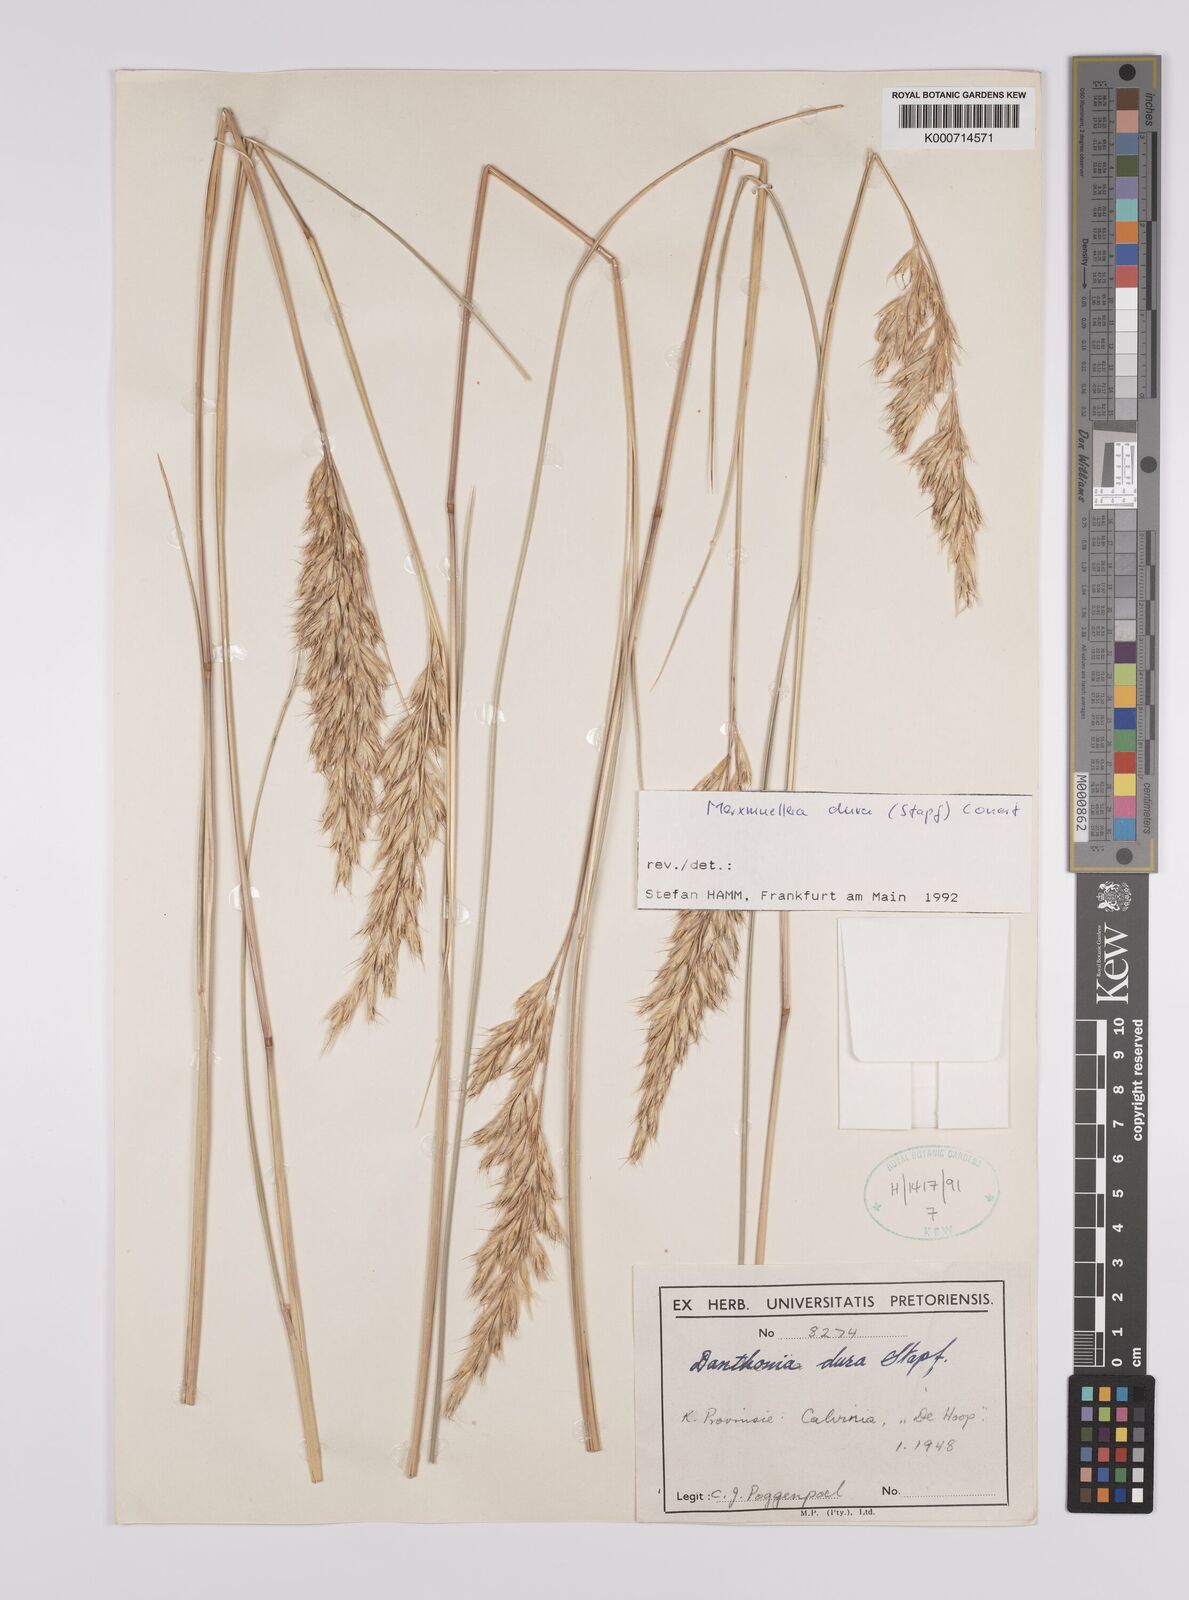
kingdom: Plantae
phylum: Tracheophyta
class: Liliopsida
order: Poales
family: Poaceae
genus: Rytidosperma
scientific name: Rytidosperma
